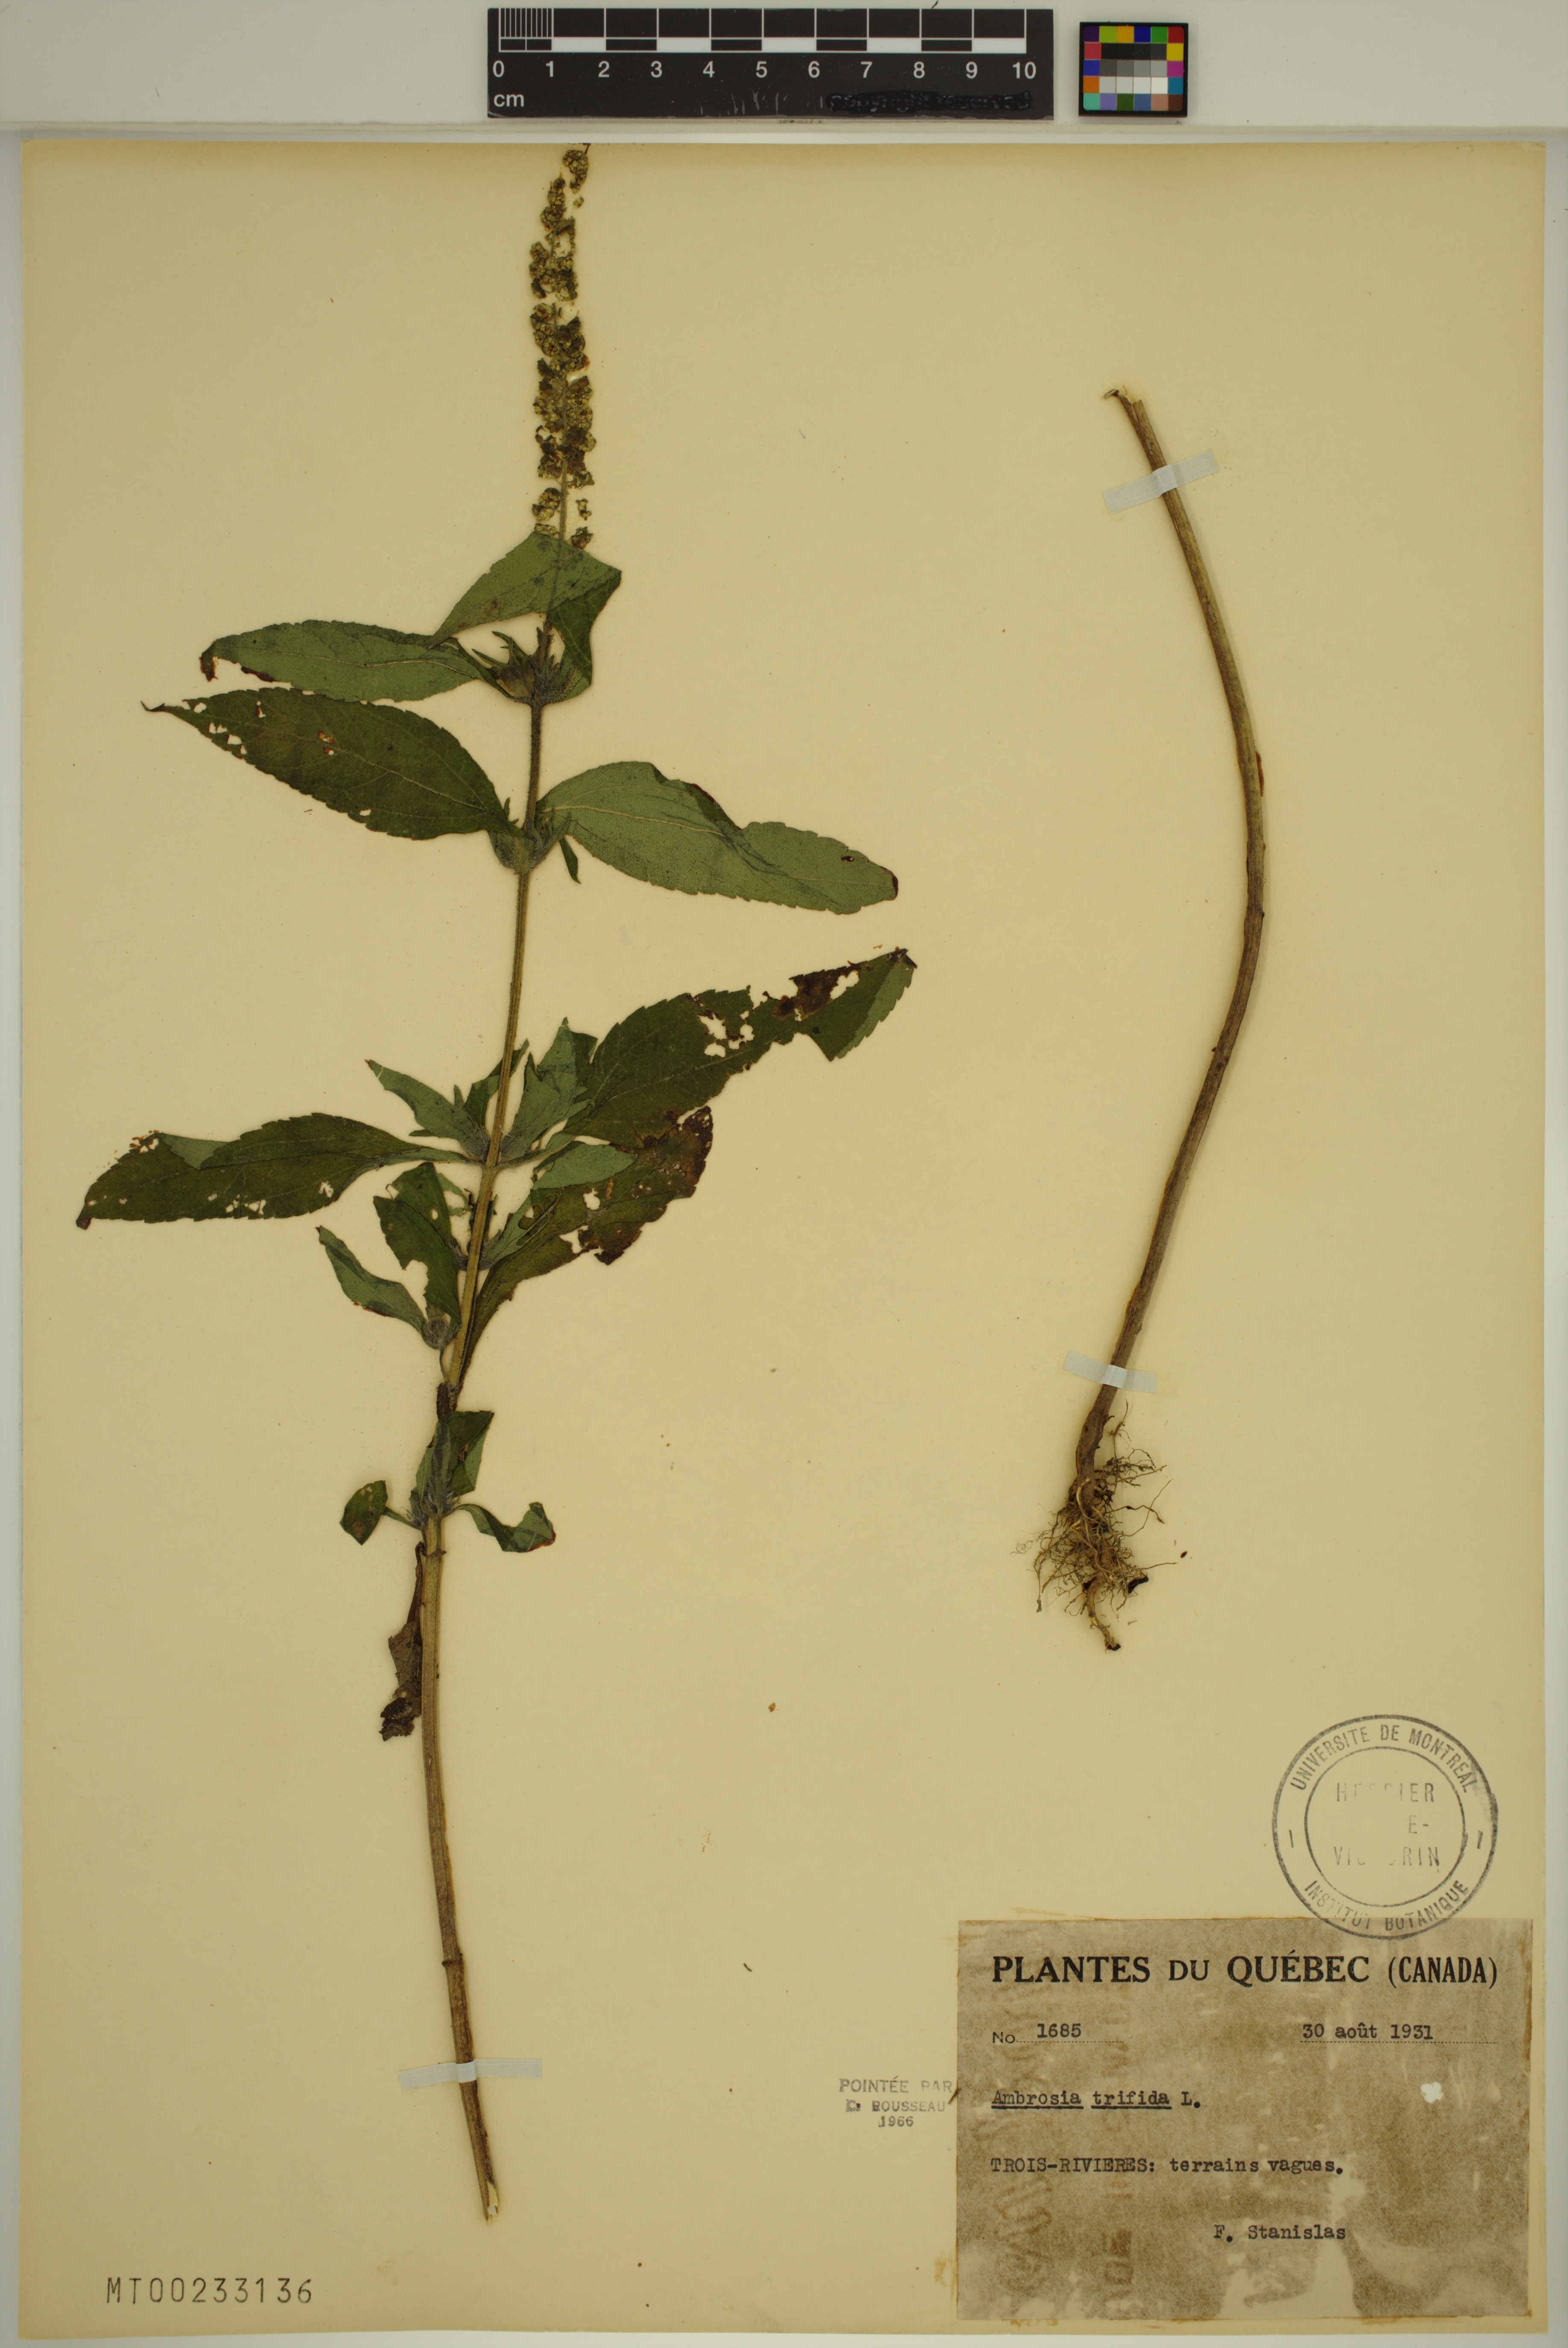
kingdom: Plantae
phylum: Tracheophyta
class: Magnoliopsida
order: Asterales
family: Asteraceae
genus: Ambrosia
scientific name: Ambrosia trifida
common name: Giant ragweed
